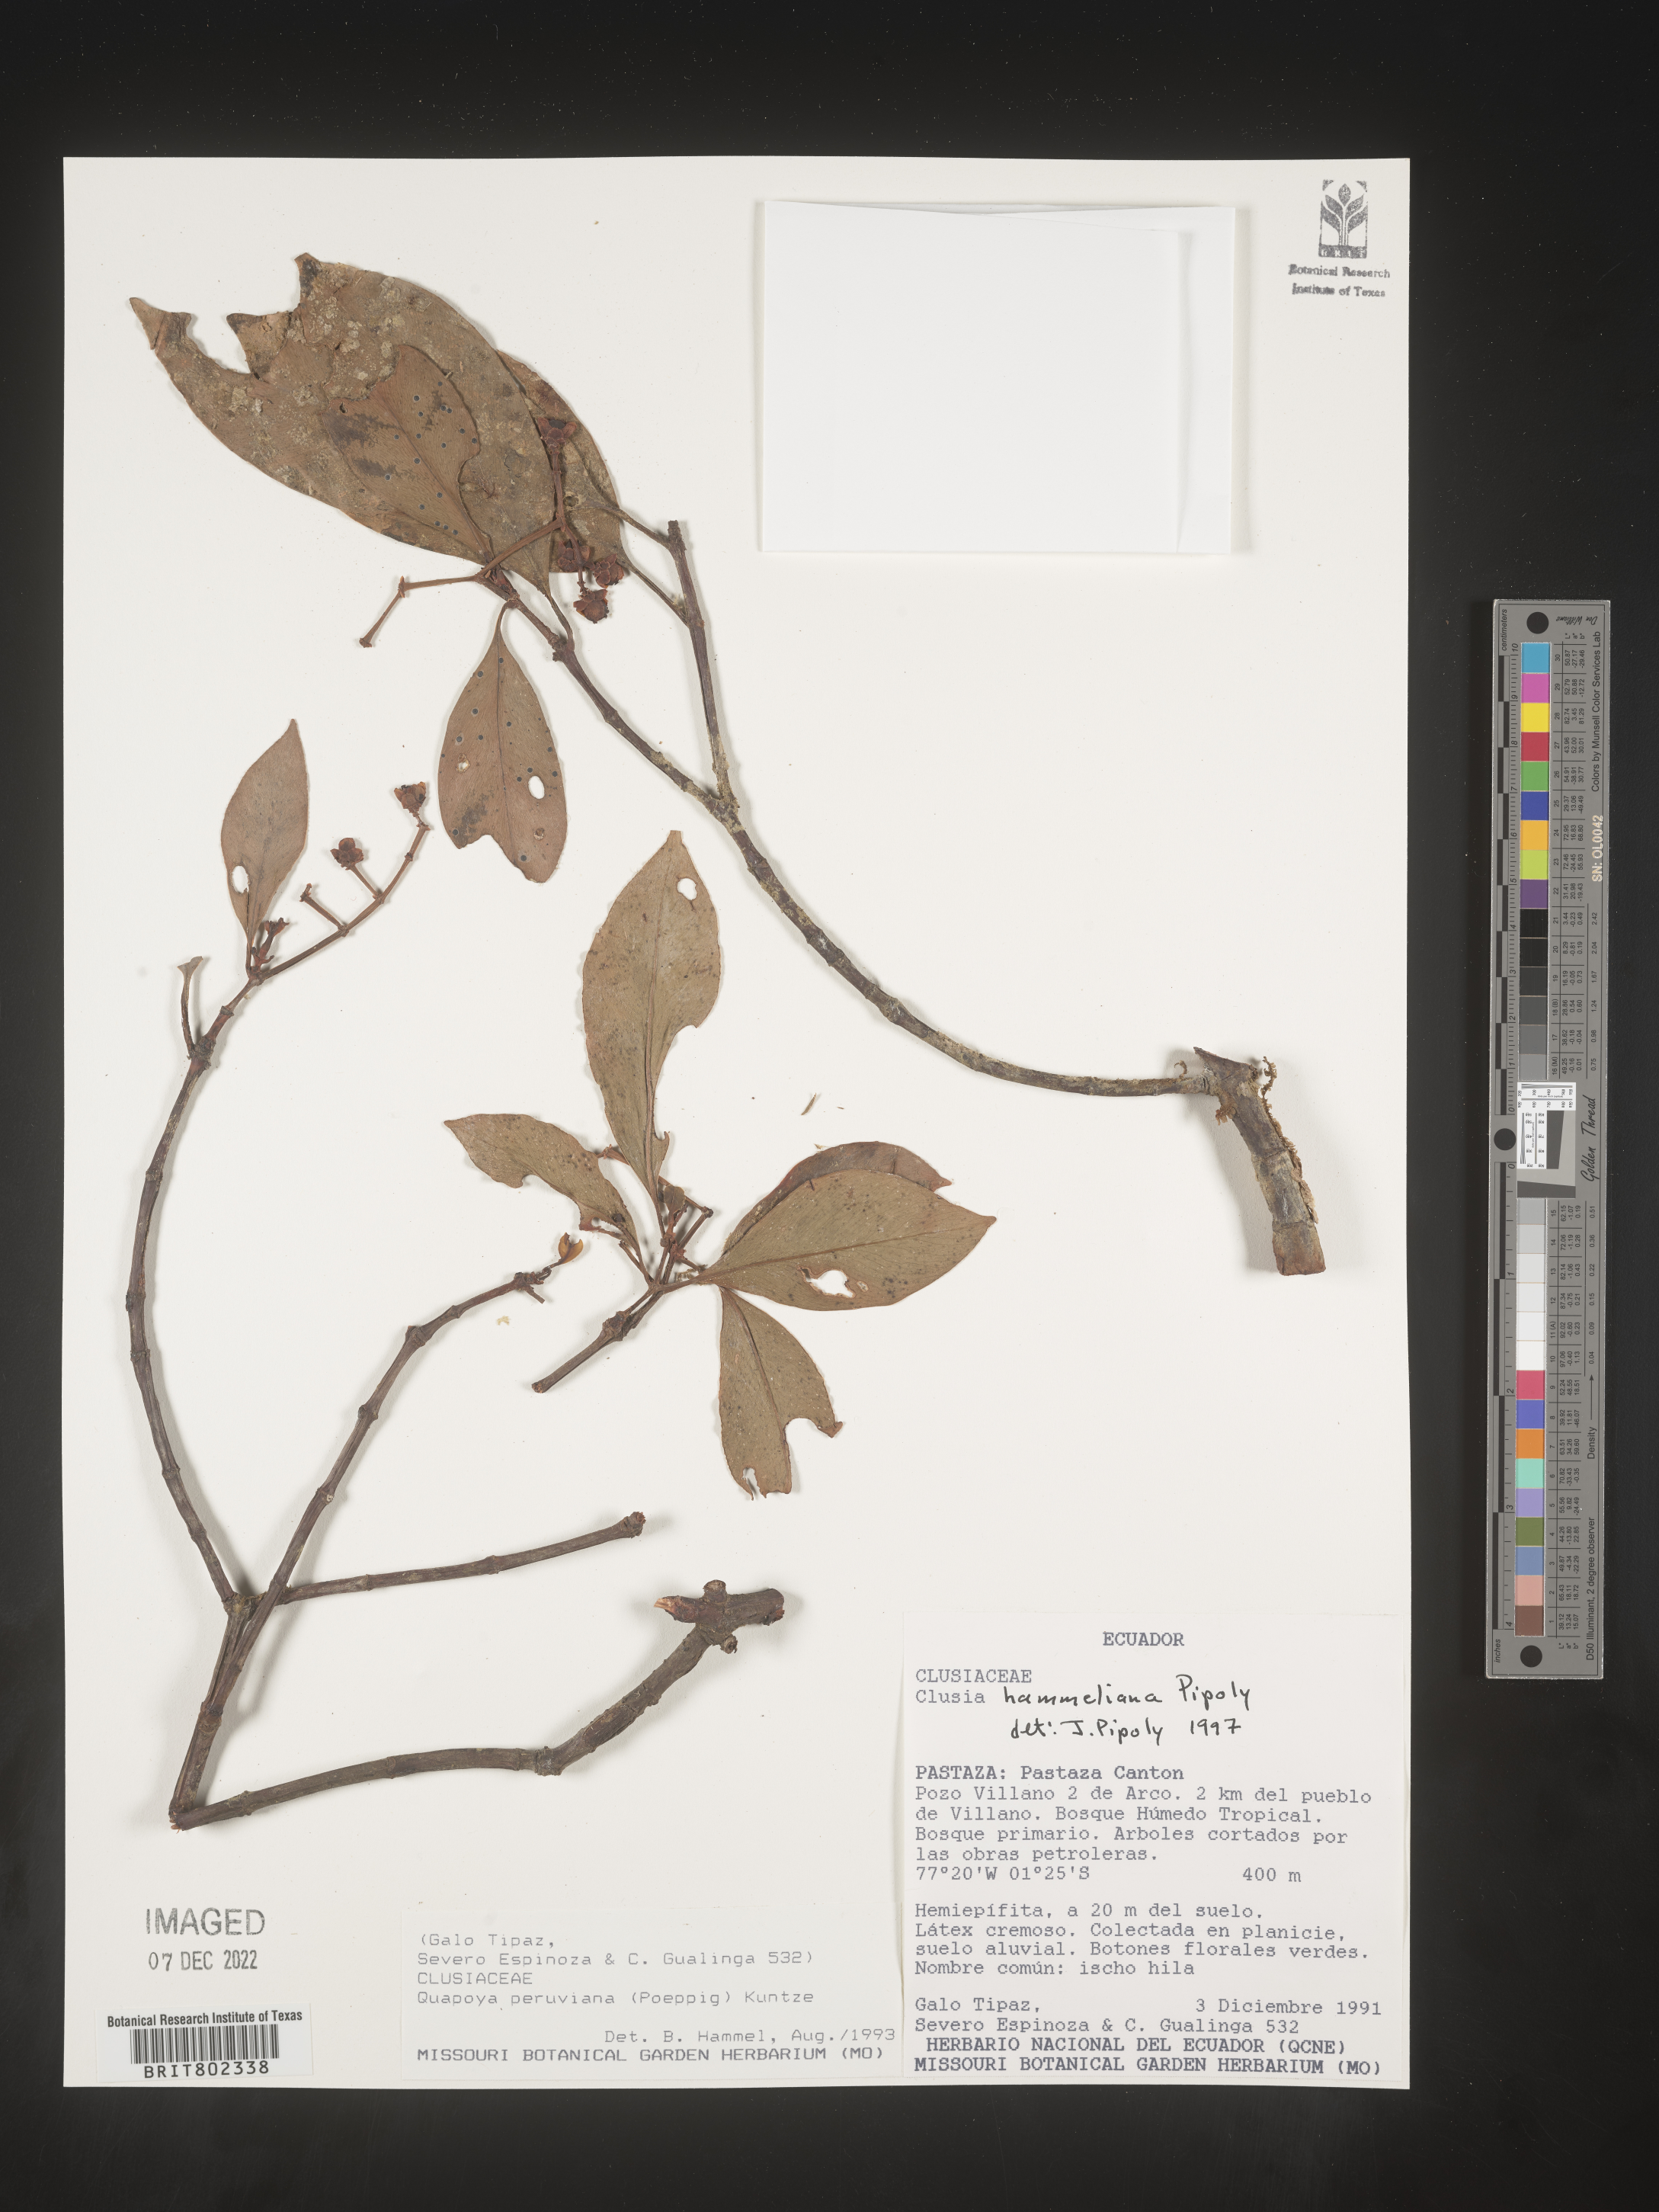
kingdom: Plantae
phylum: Tracheophyta
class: Magnoliopsida
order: Malpighiales
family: Clusiaceae
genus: Clusia
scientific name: Clusia hammeliana
